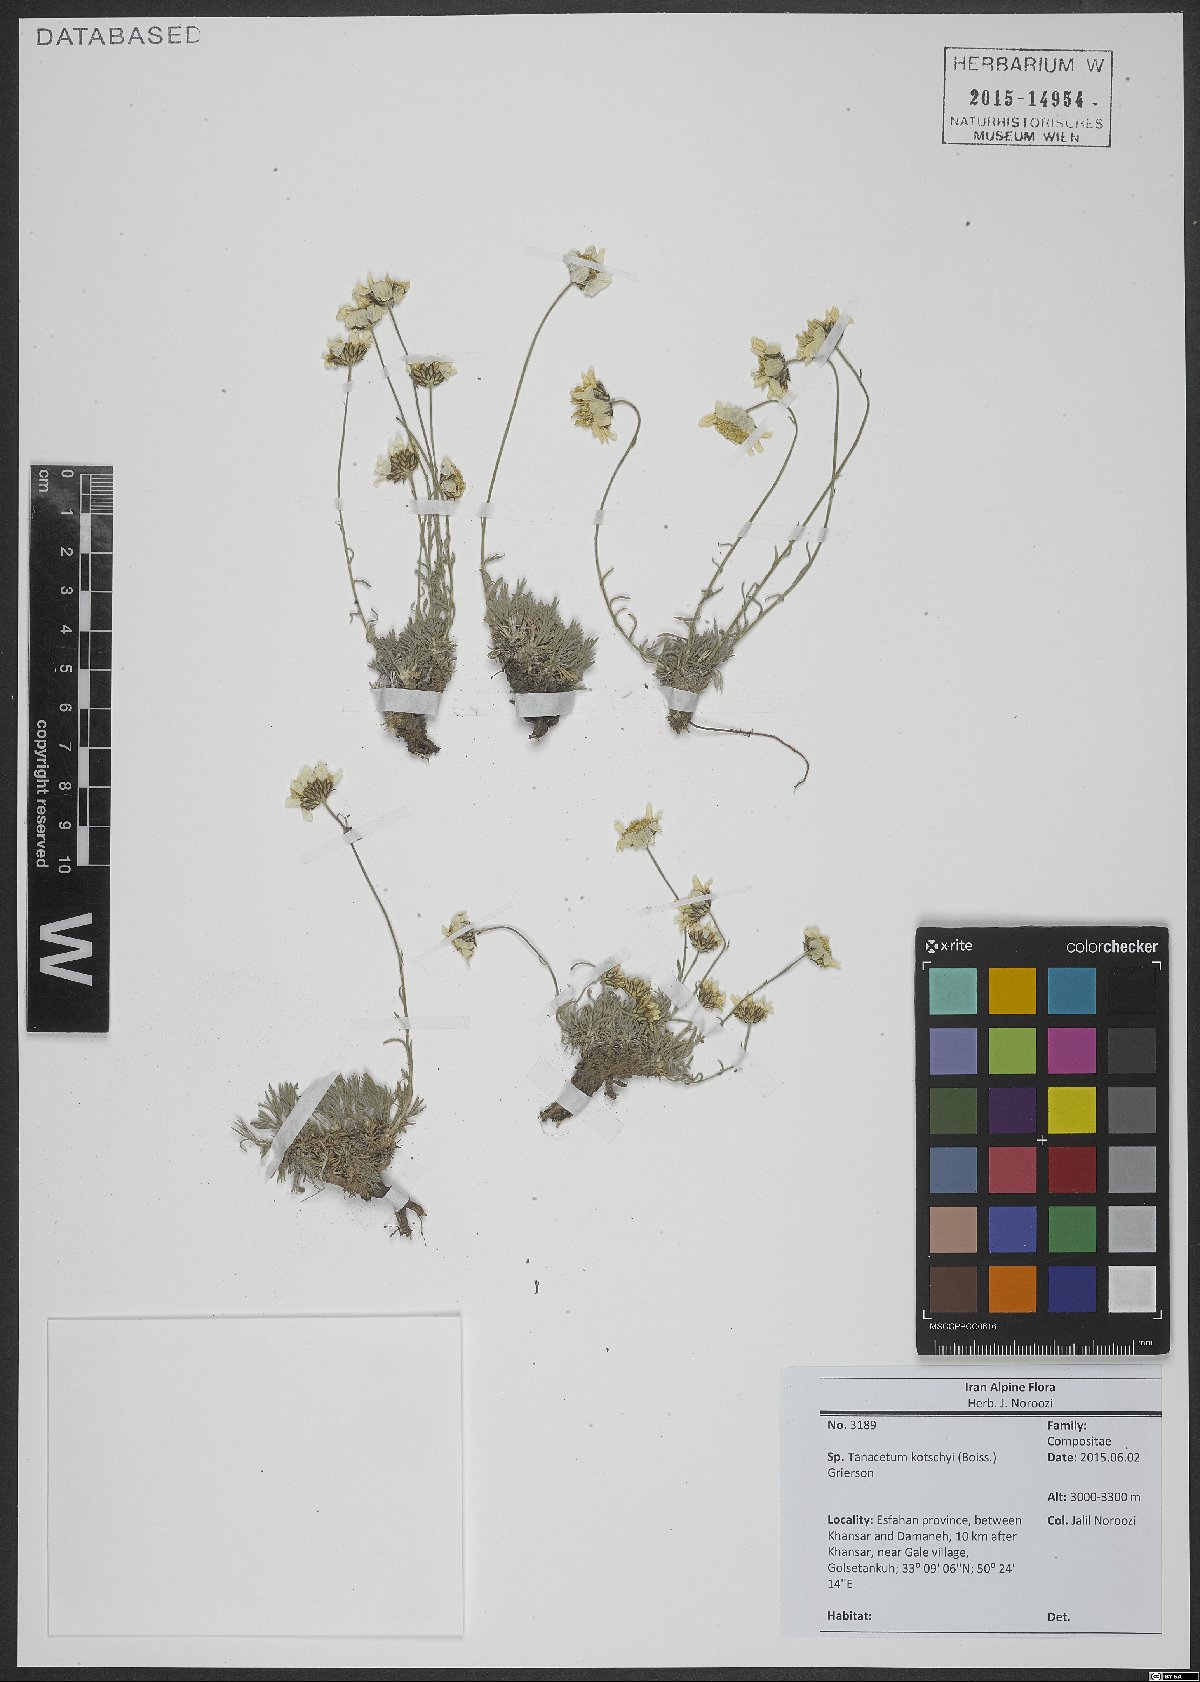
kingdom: Plantae
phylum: Tracheophyta
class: Magnoliopsida
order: Asterales
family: Asteraceae
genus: Tanacetum
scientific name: Tanacetum kotschyi
